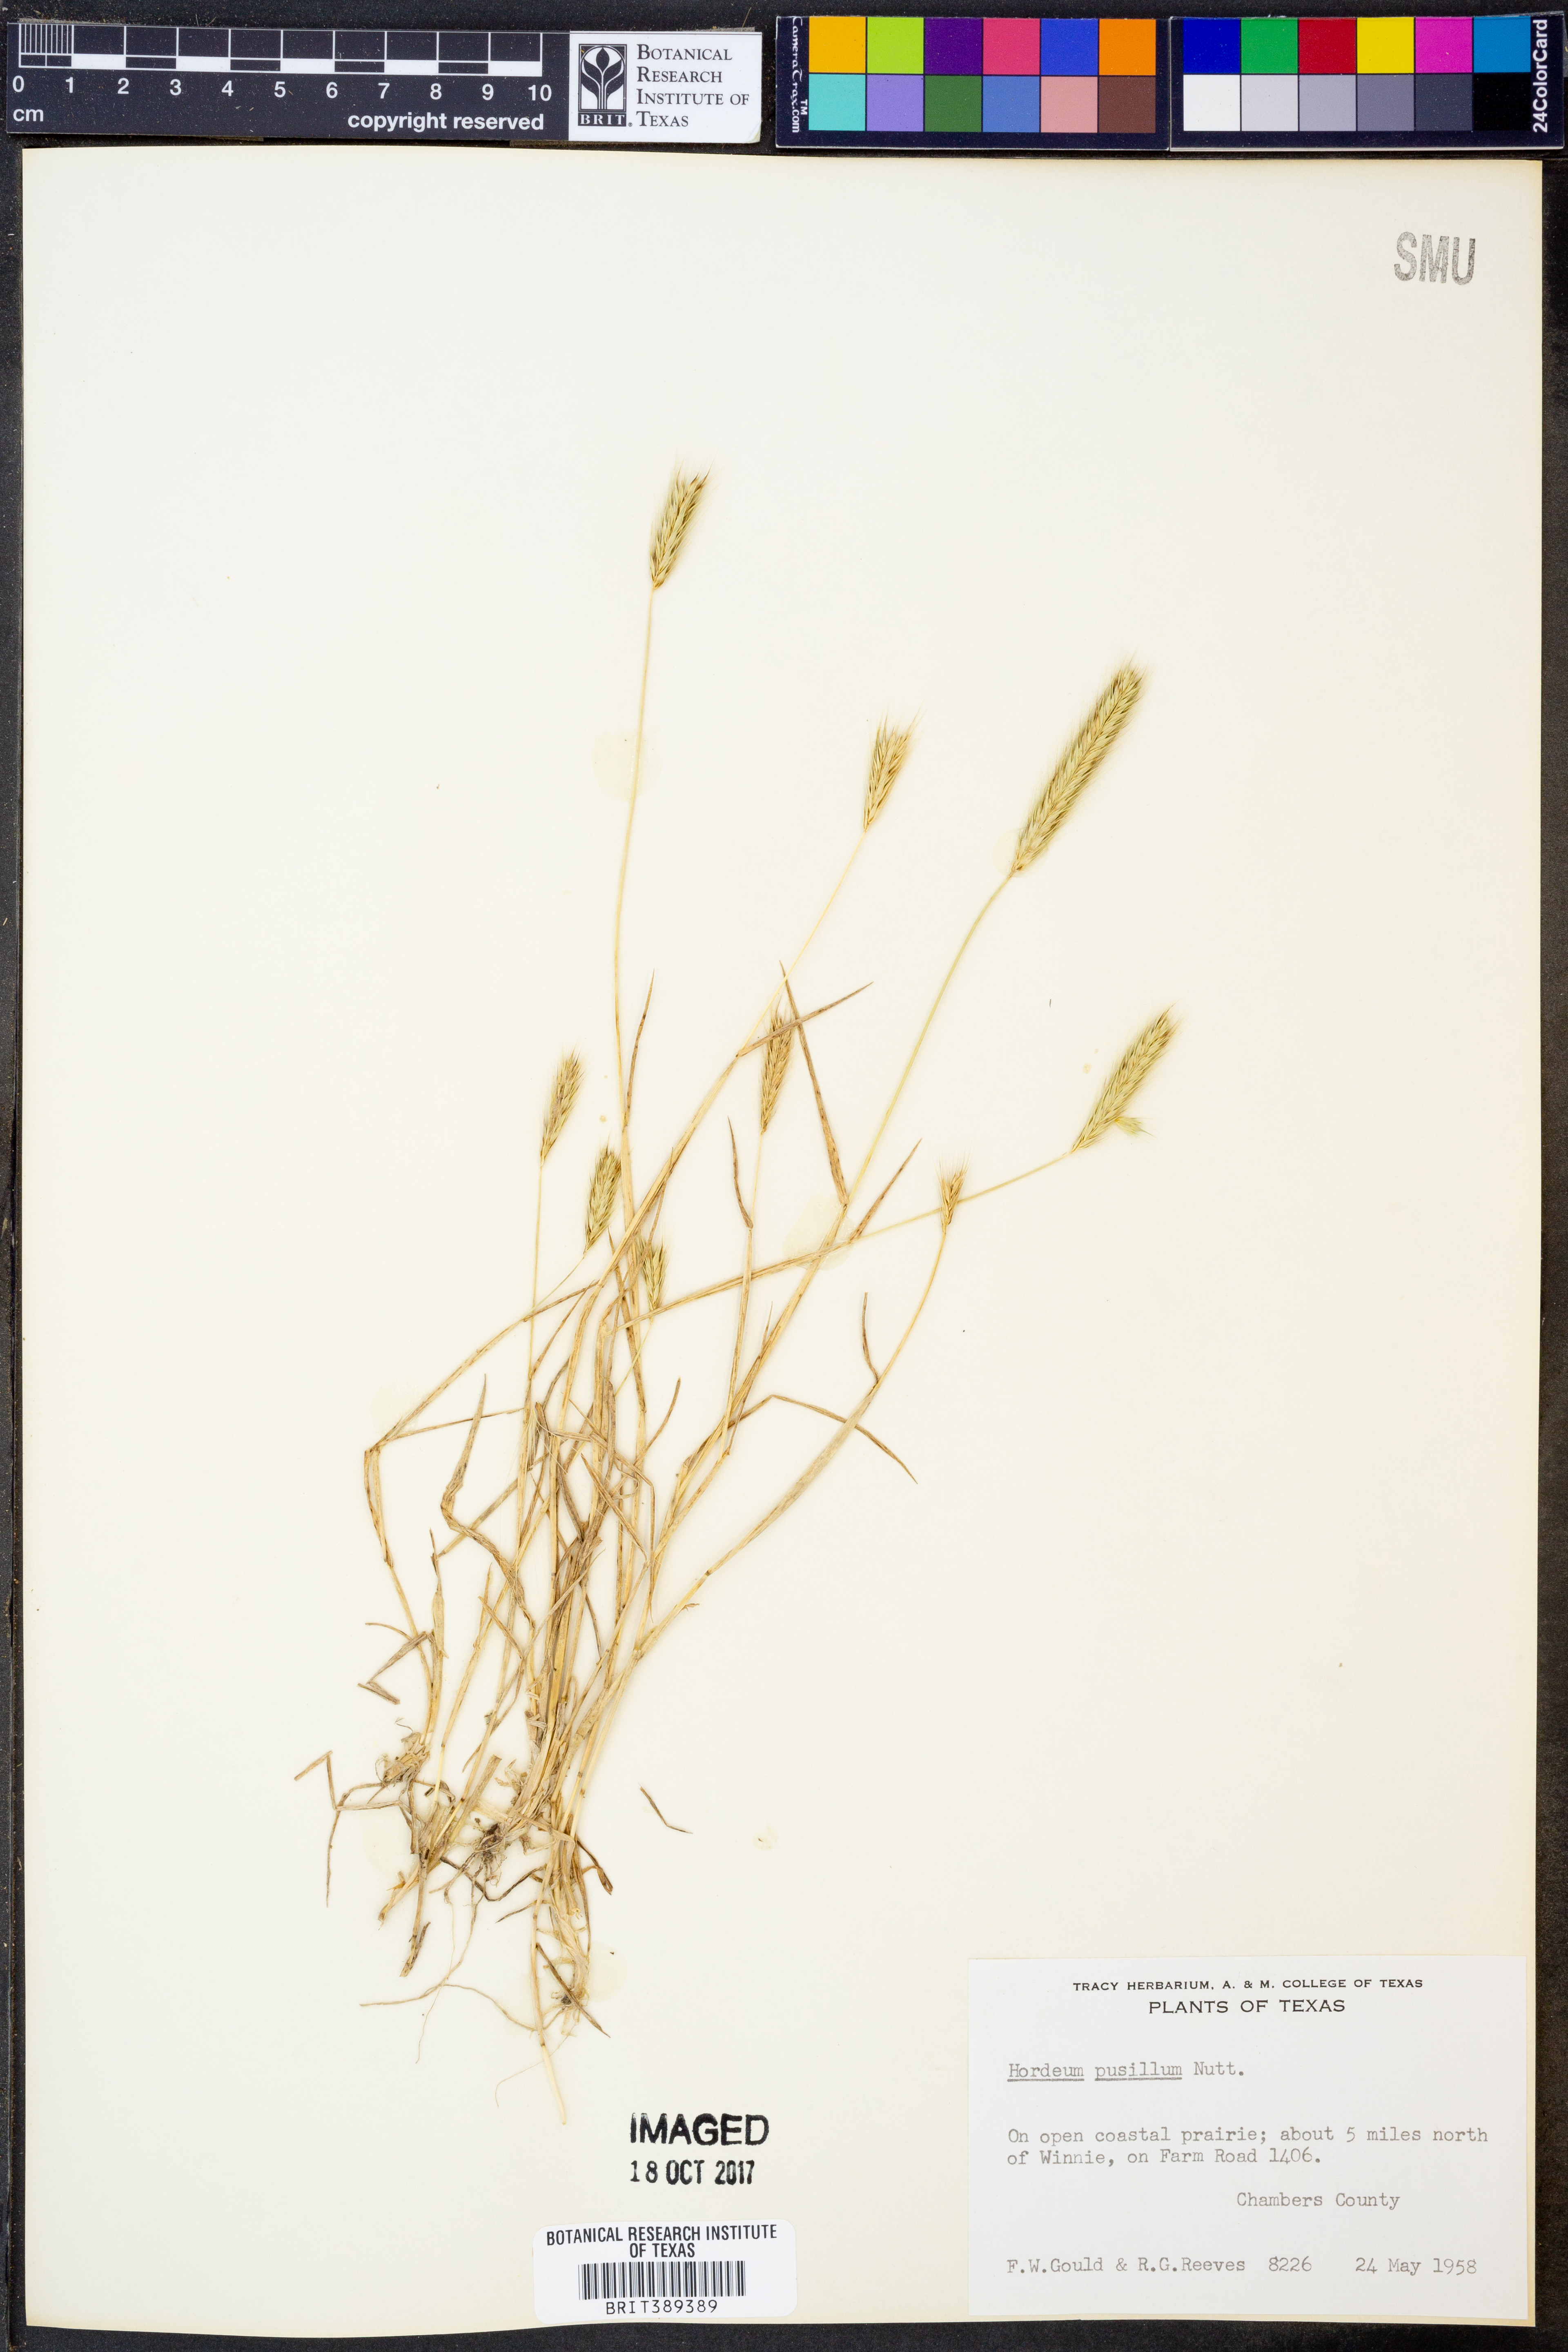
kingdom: Plantae
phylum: Tracheophyta
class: Liliopsida
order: Poales
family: Poaceae
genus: Hordeum
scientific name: Hordeum pusillum
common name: Little barley
